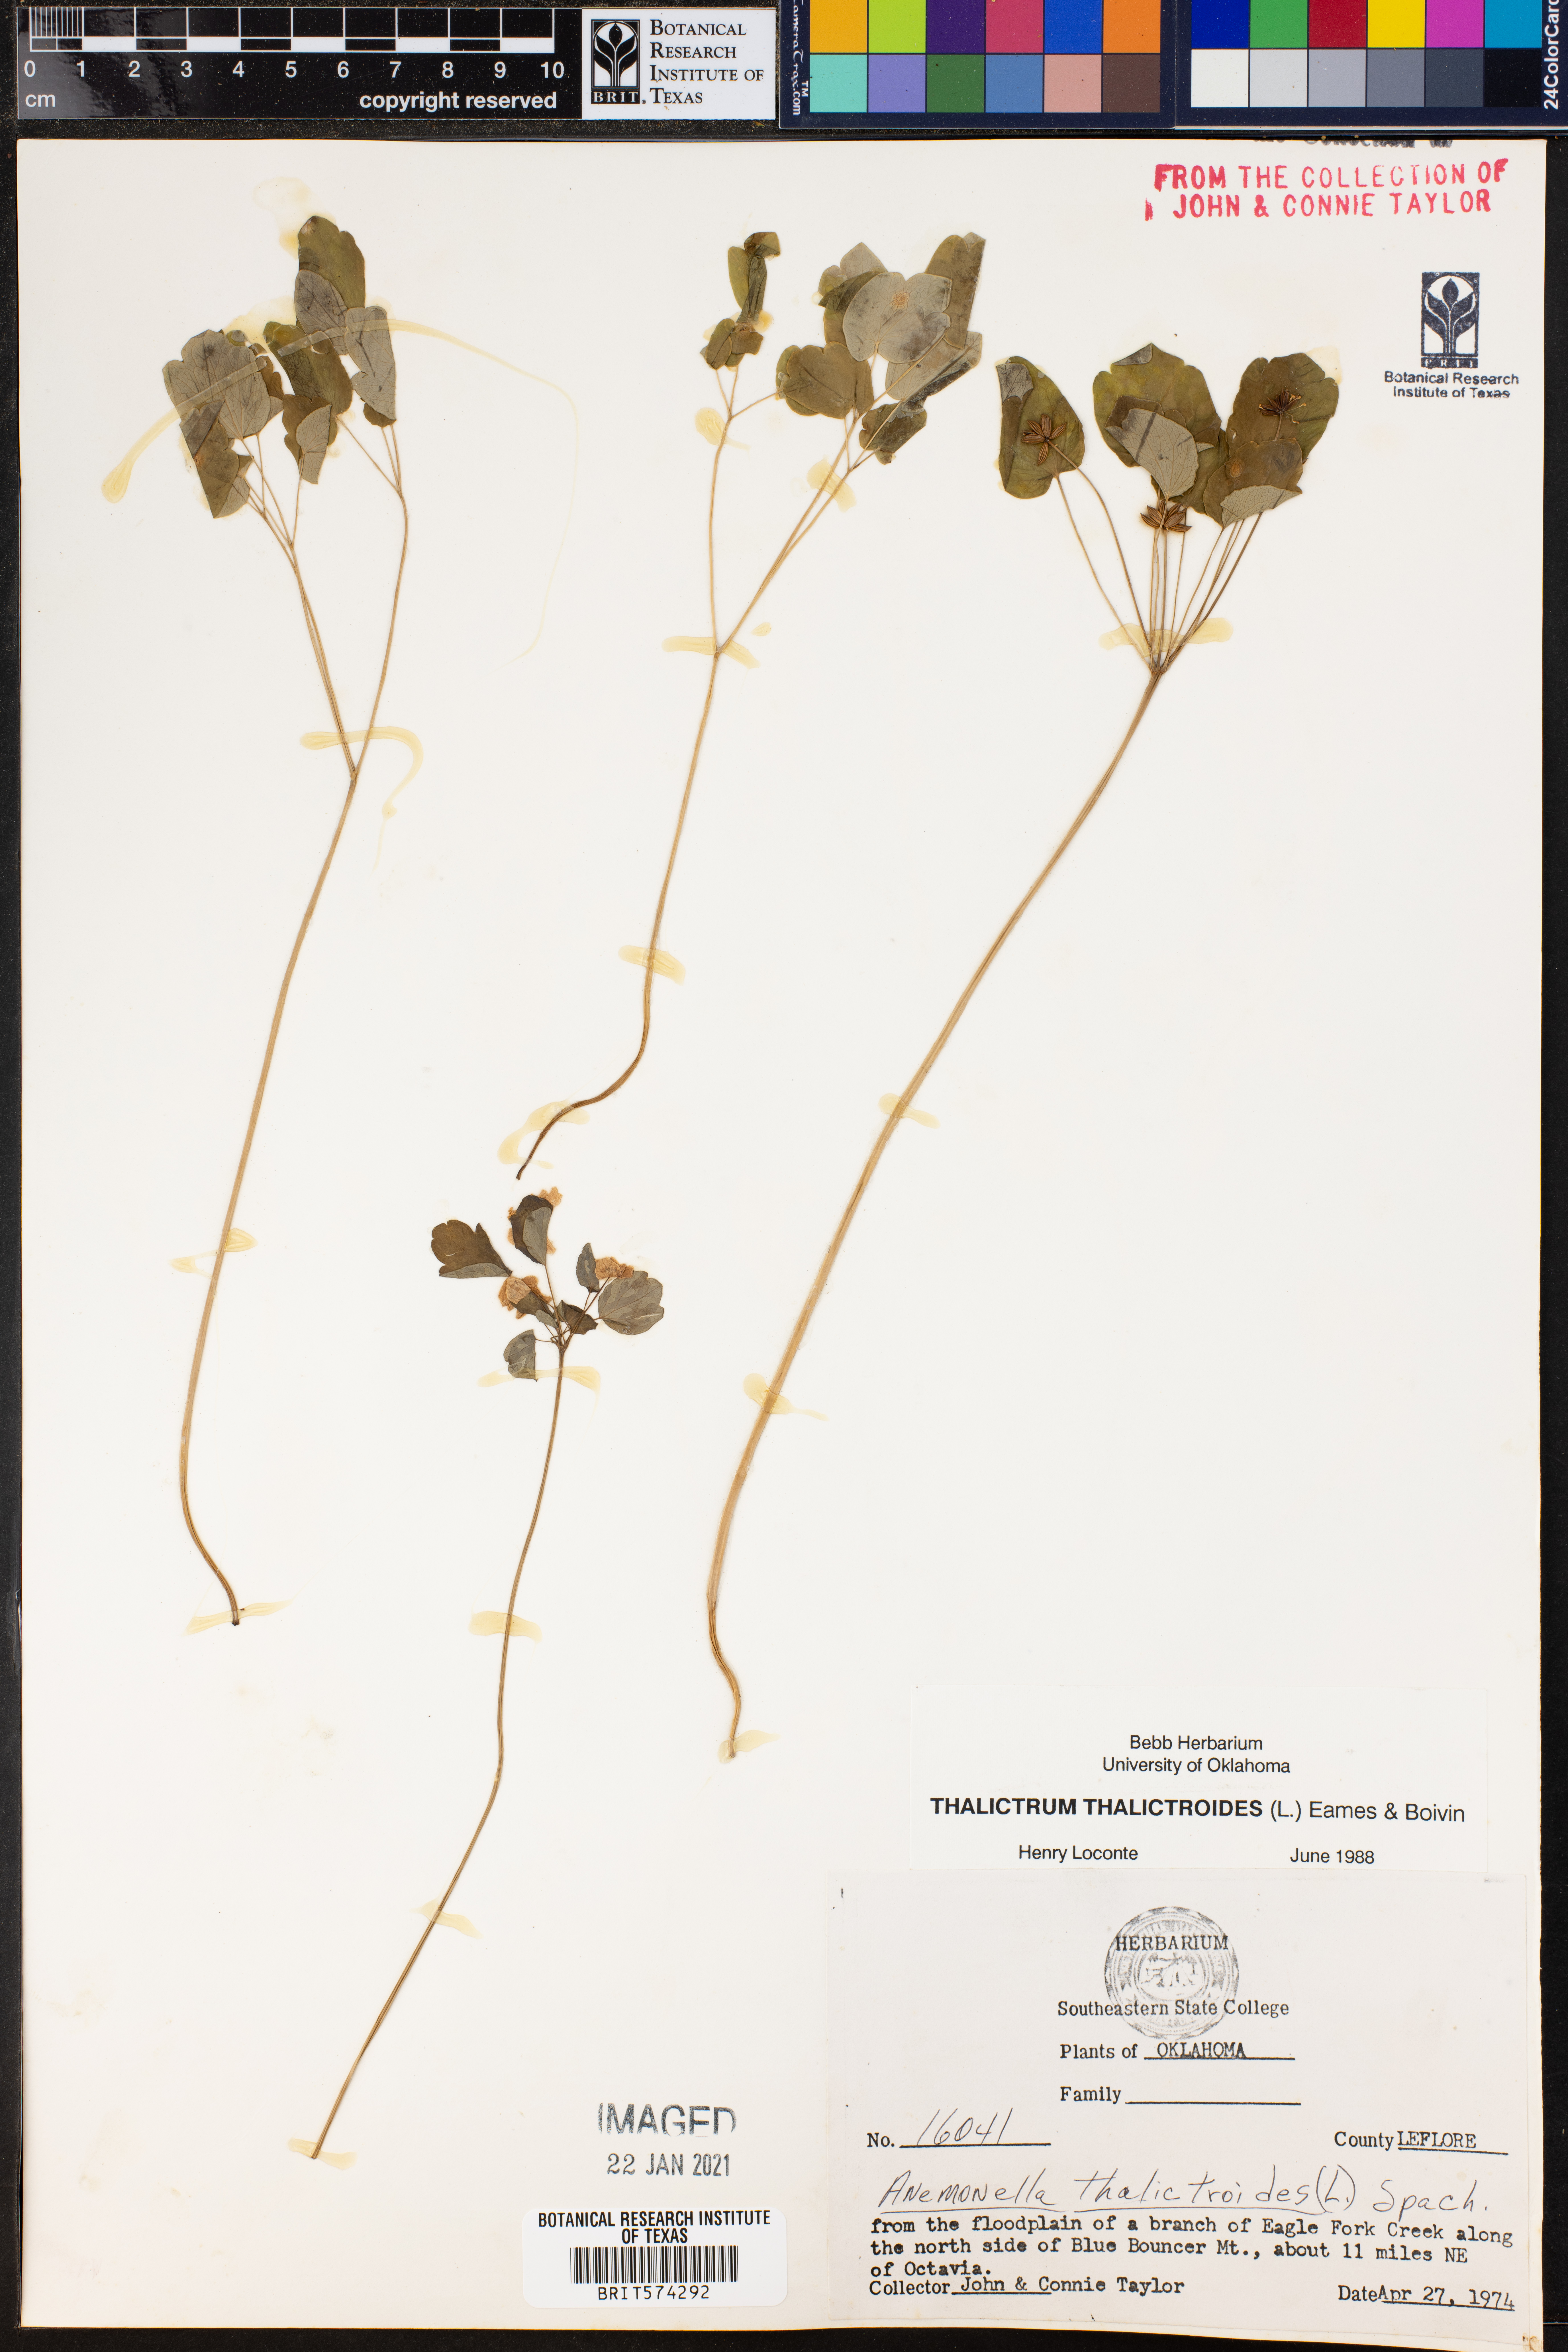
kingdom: Plantae
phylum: Tracheophyta
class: Magnoliopsida
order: Ranunculales
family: Ranunculaceae
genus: Thalictrum
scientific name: Thalictrum thalictroides
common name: Rue-anemone
